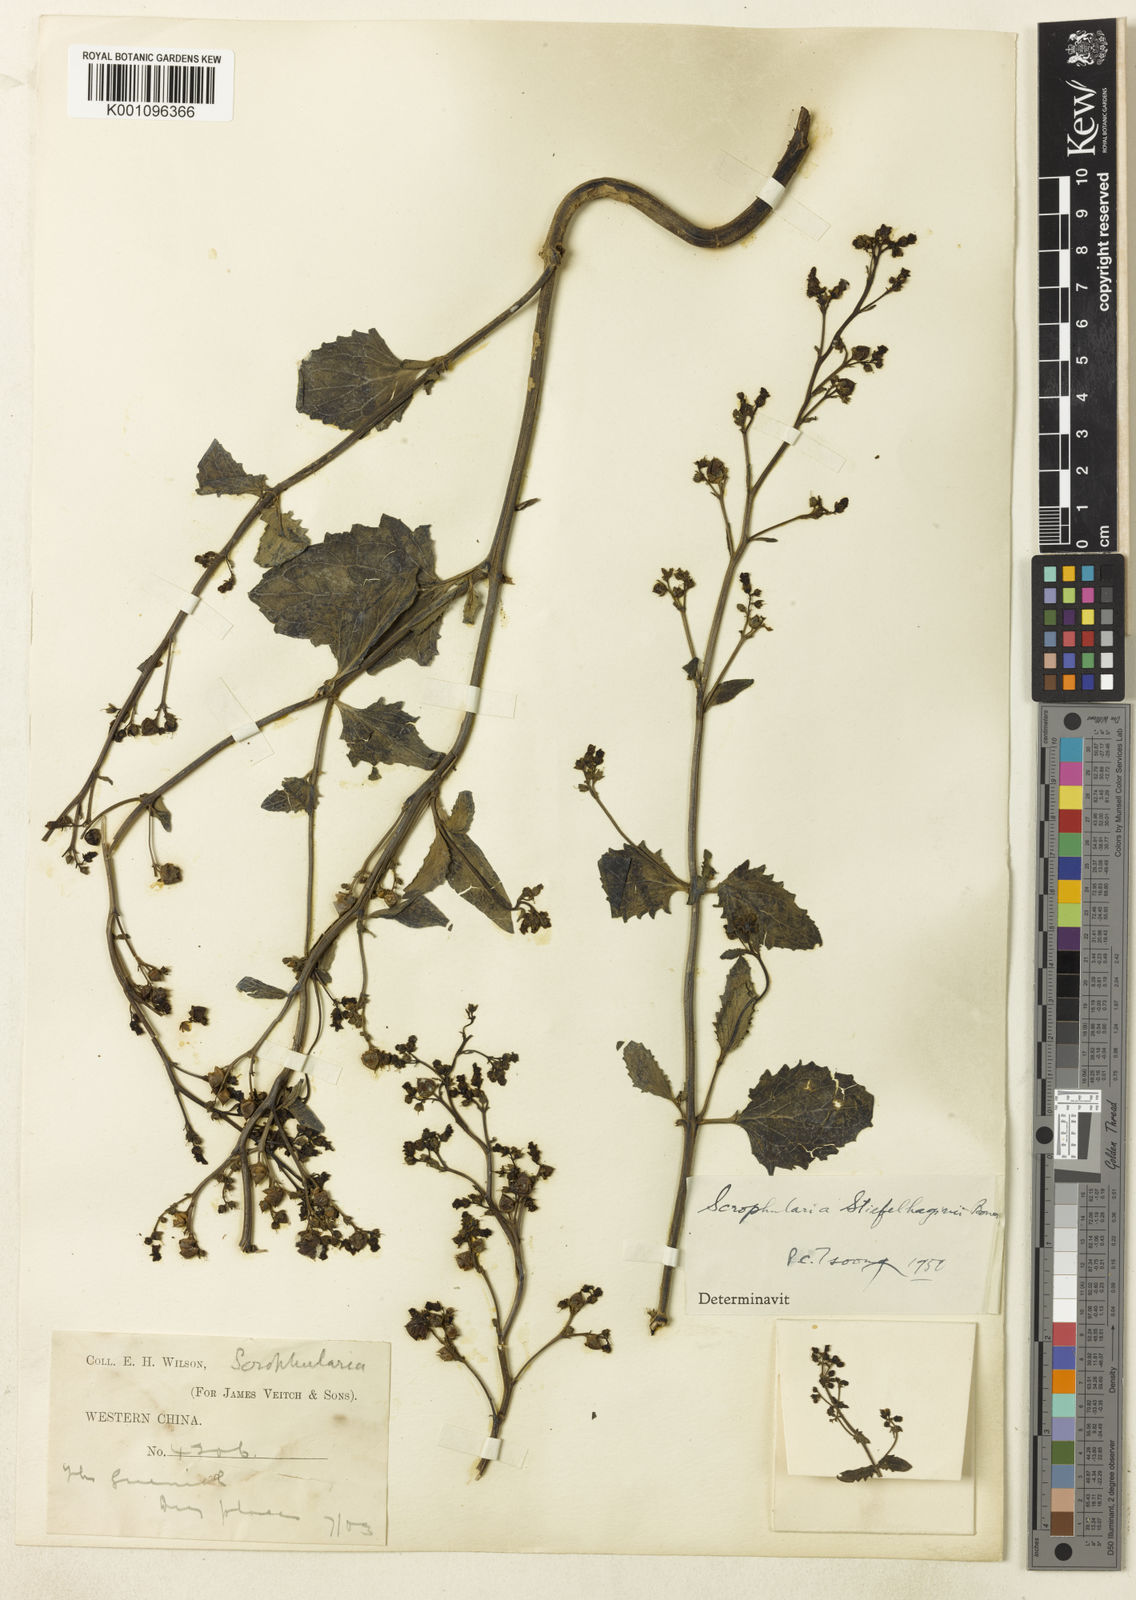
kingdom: Plantae
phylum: Tracheophyta
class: Magnoliopsida
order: Lamiales
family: Scrophulariaceae
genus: Scrophularia
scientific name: Scrophularia mandarinorum
